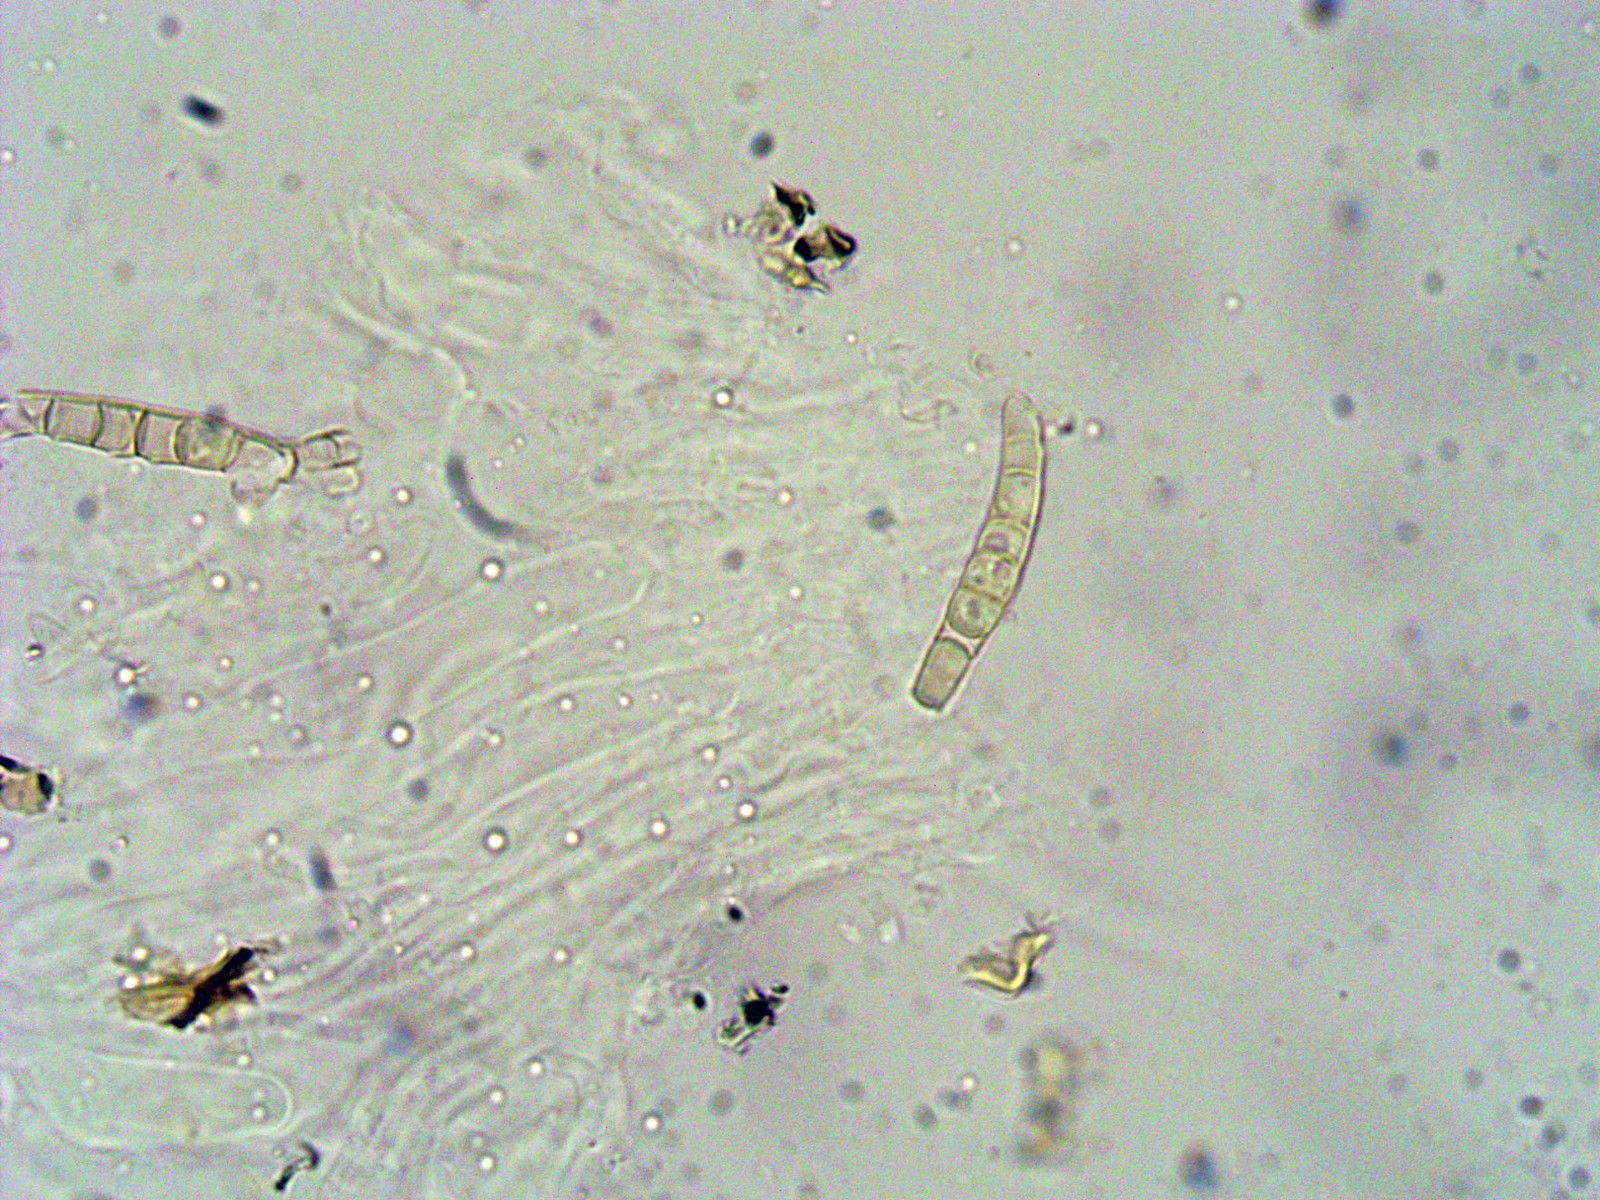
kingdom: Fungi
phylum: Ascomycota
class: Dothideomycetes
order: Pleosporales
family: Leptosphaeriaceae
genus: Leptosphaeria
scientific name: Leptosphaeria acuta
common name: spids kulkegle
